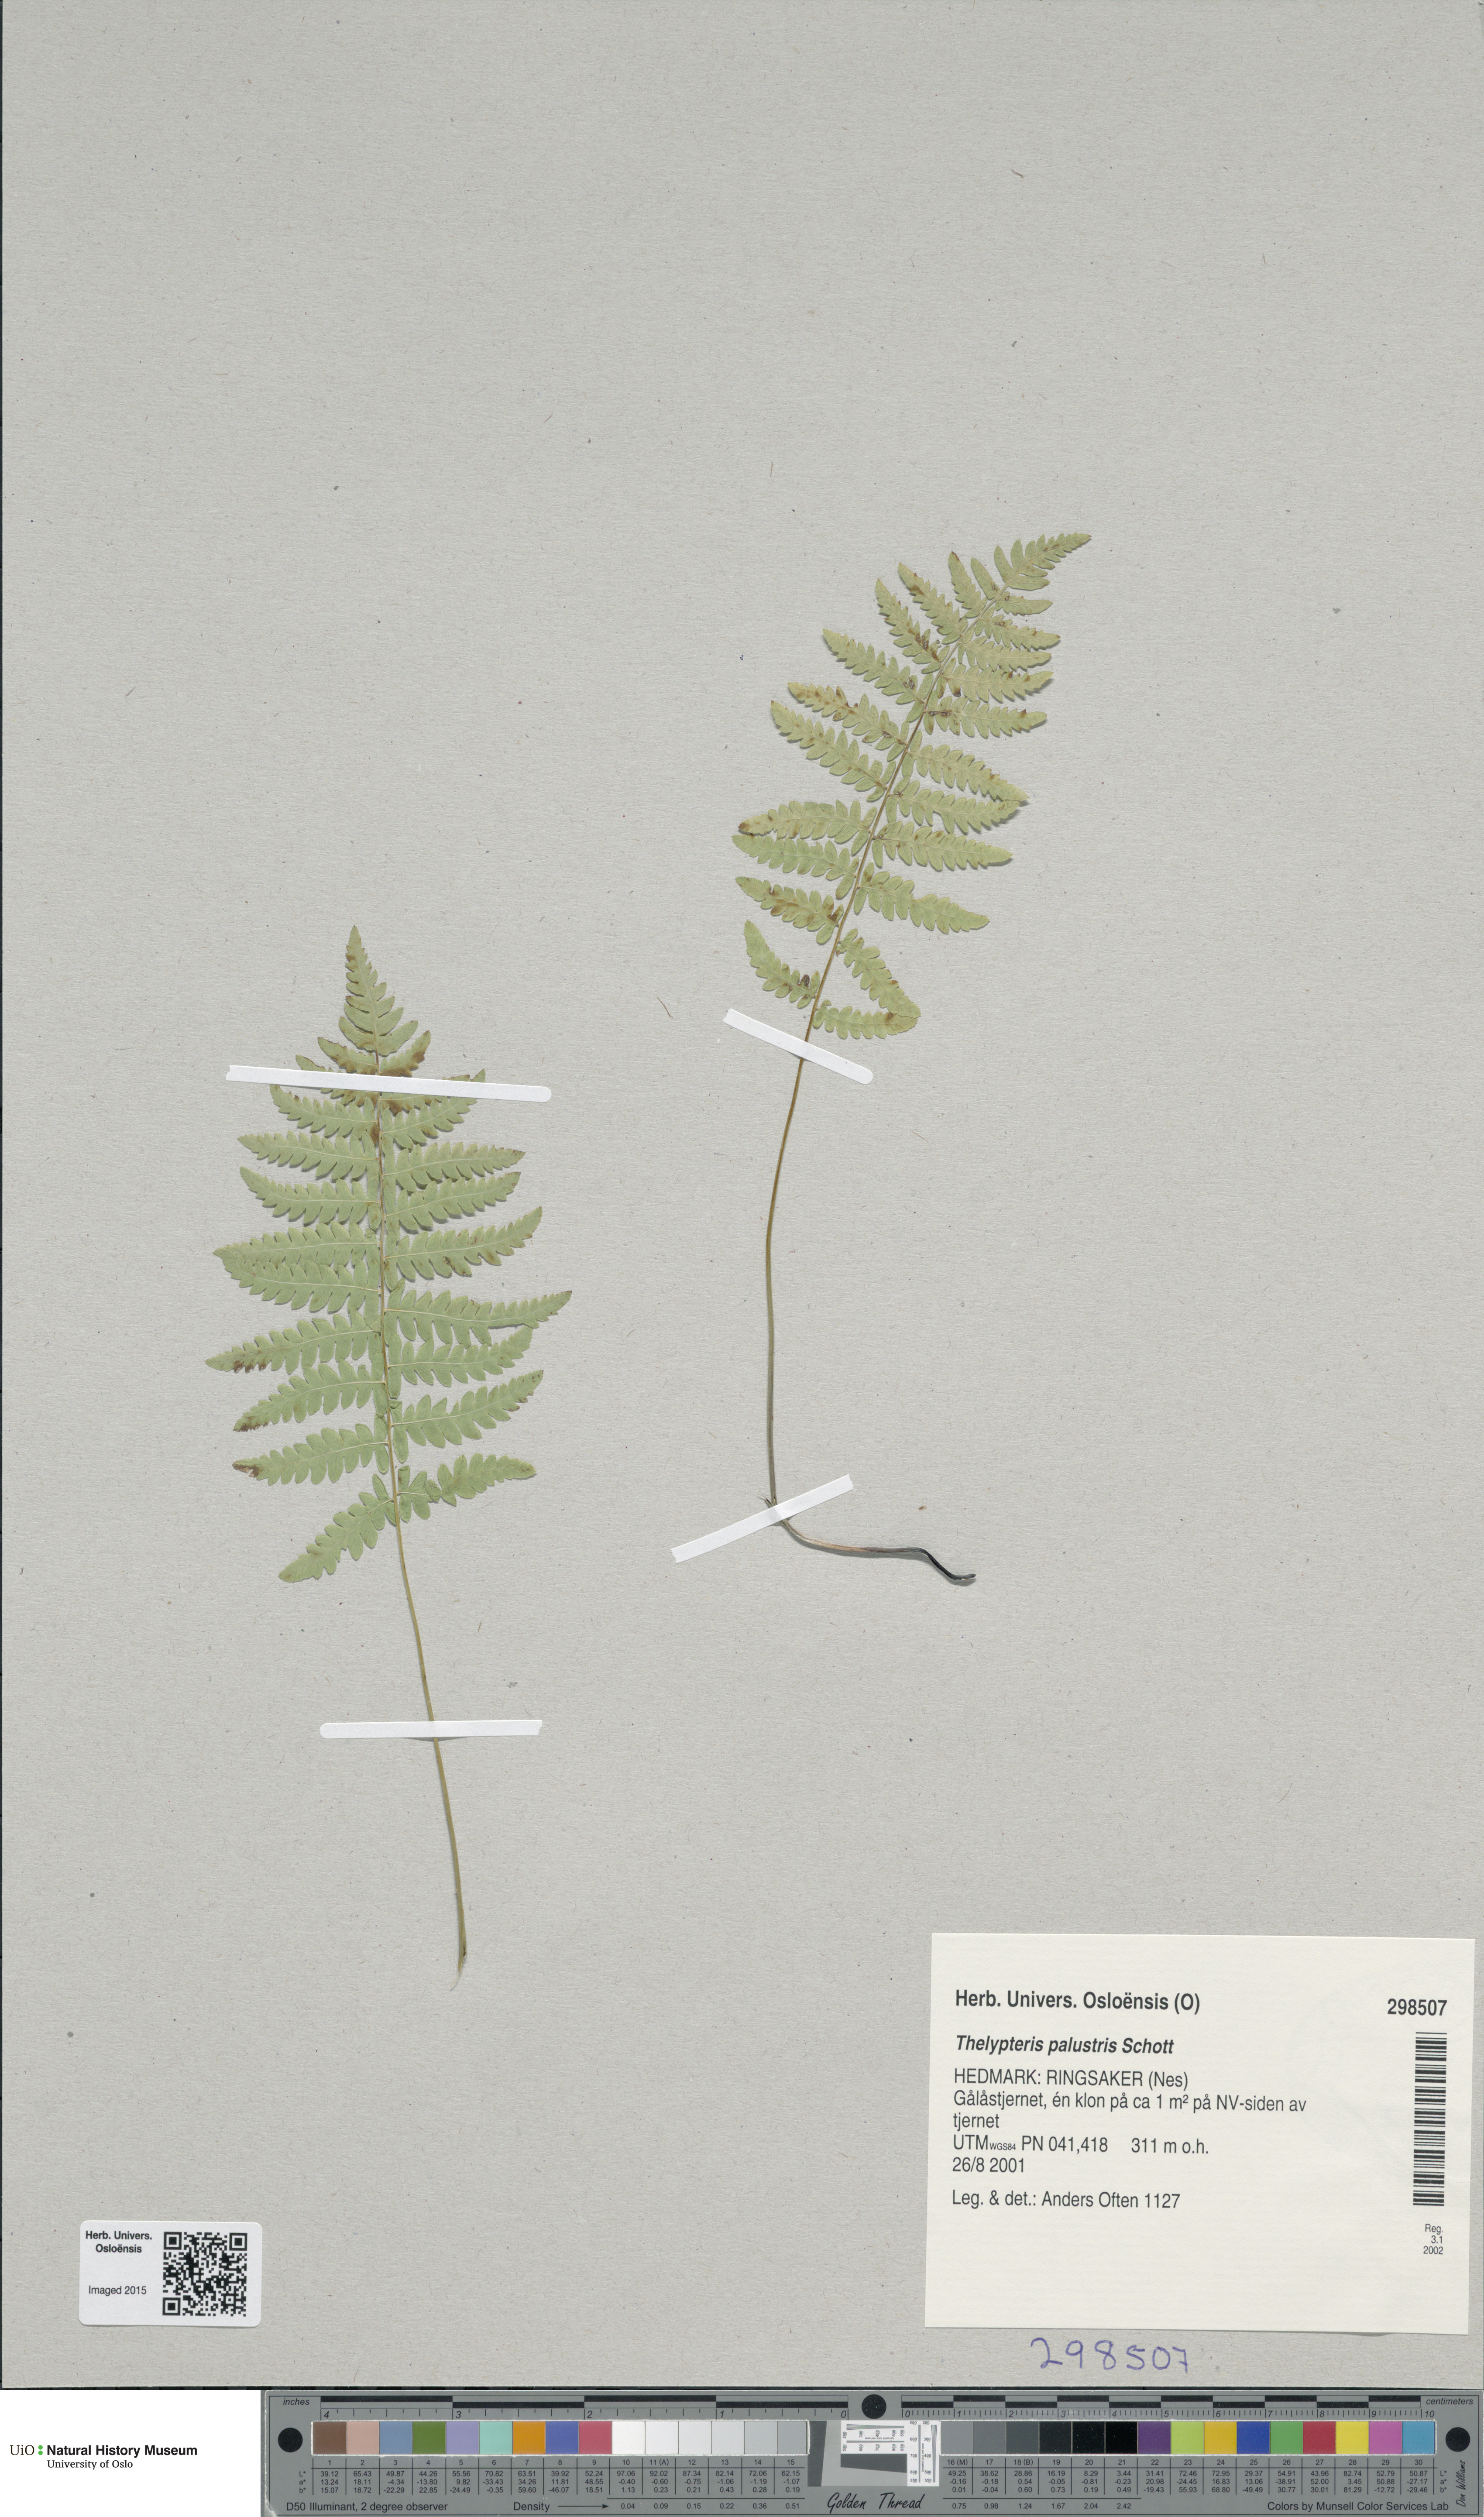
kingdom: Plantae
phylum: Tracheophyta
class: Polypodiopsida
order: Polypodiales
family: Thelypteridaceae
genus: Thelypteris
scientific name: Thelypteris palustris
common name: Marsh fern
